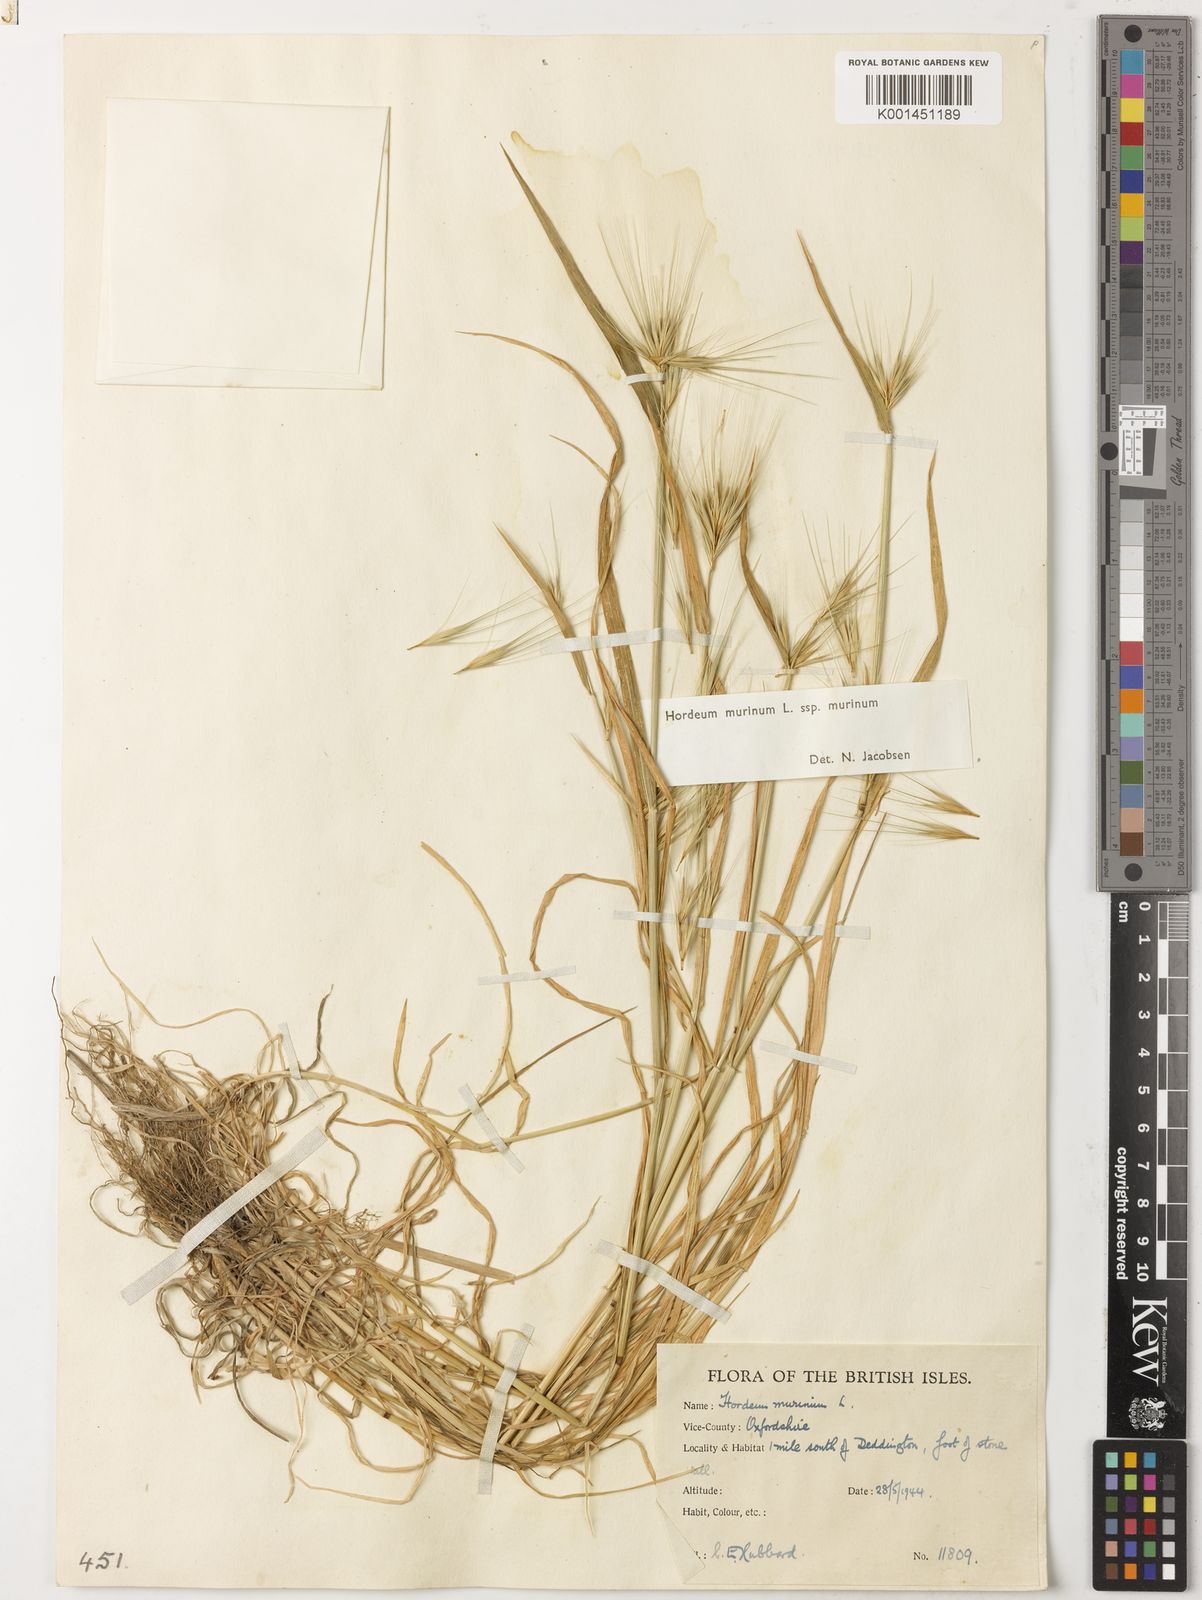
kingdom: Plantae
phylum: Tracheophyta
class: Liliopsida
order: Poales
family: Poaceae
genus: Hordeum
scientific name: Hordeum murinum
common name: Wall barley
